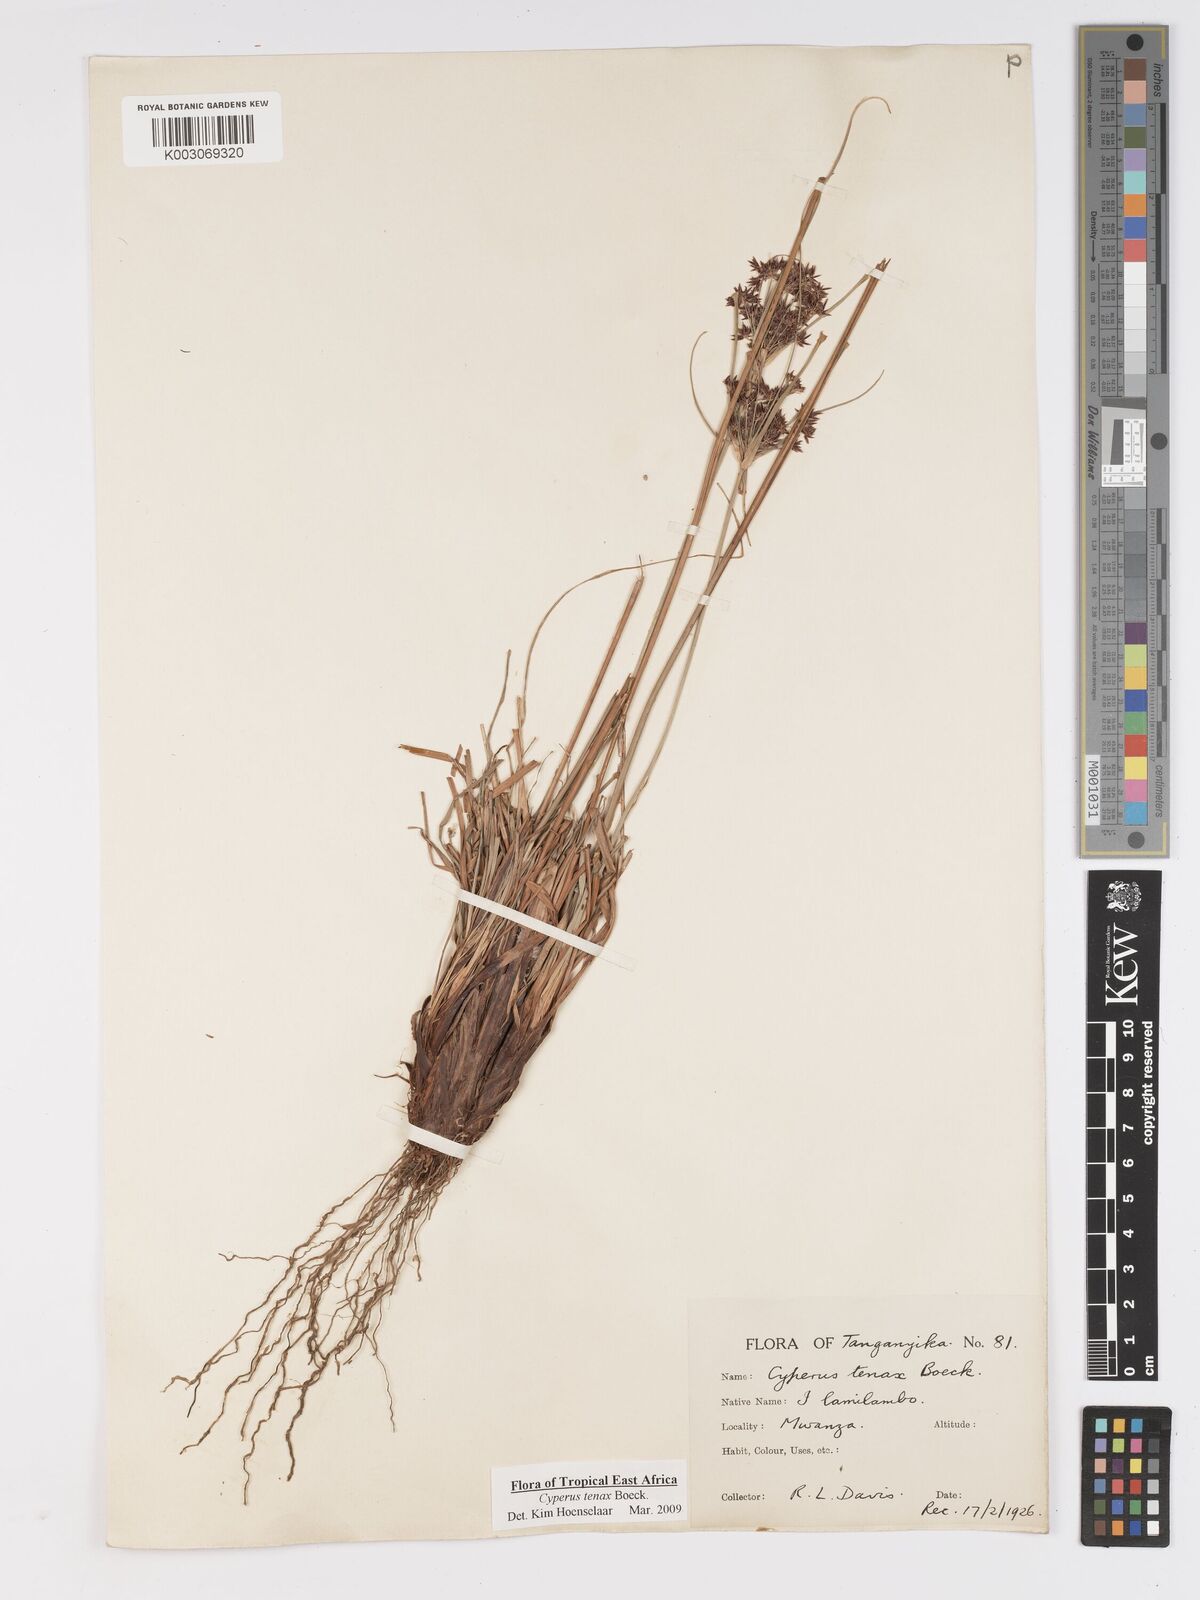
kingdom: Plantae
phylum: Tracheophyta
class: Liliopsida
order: Poales
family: Cyperaceae
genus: Cyperus
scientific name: Cyperus tenax
